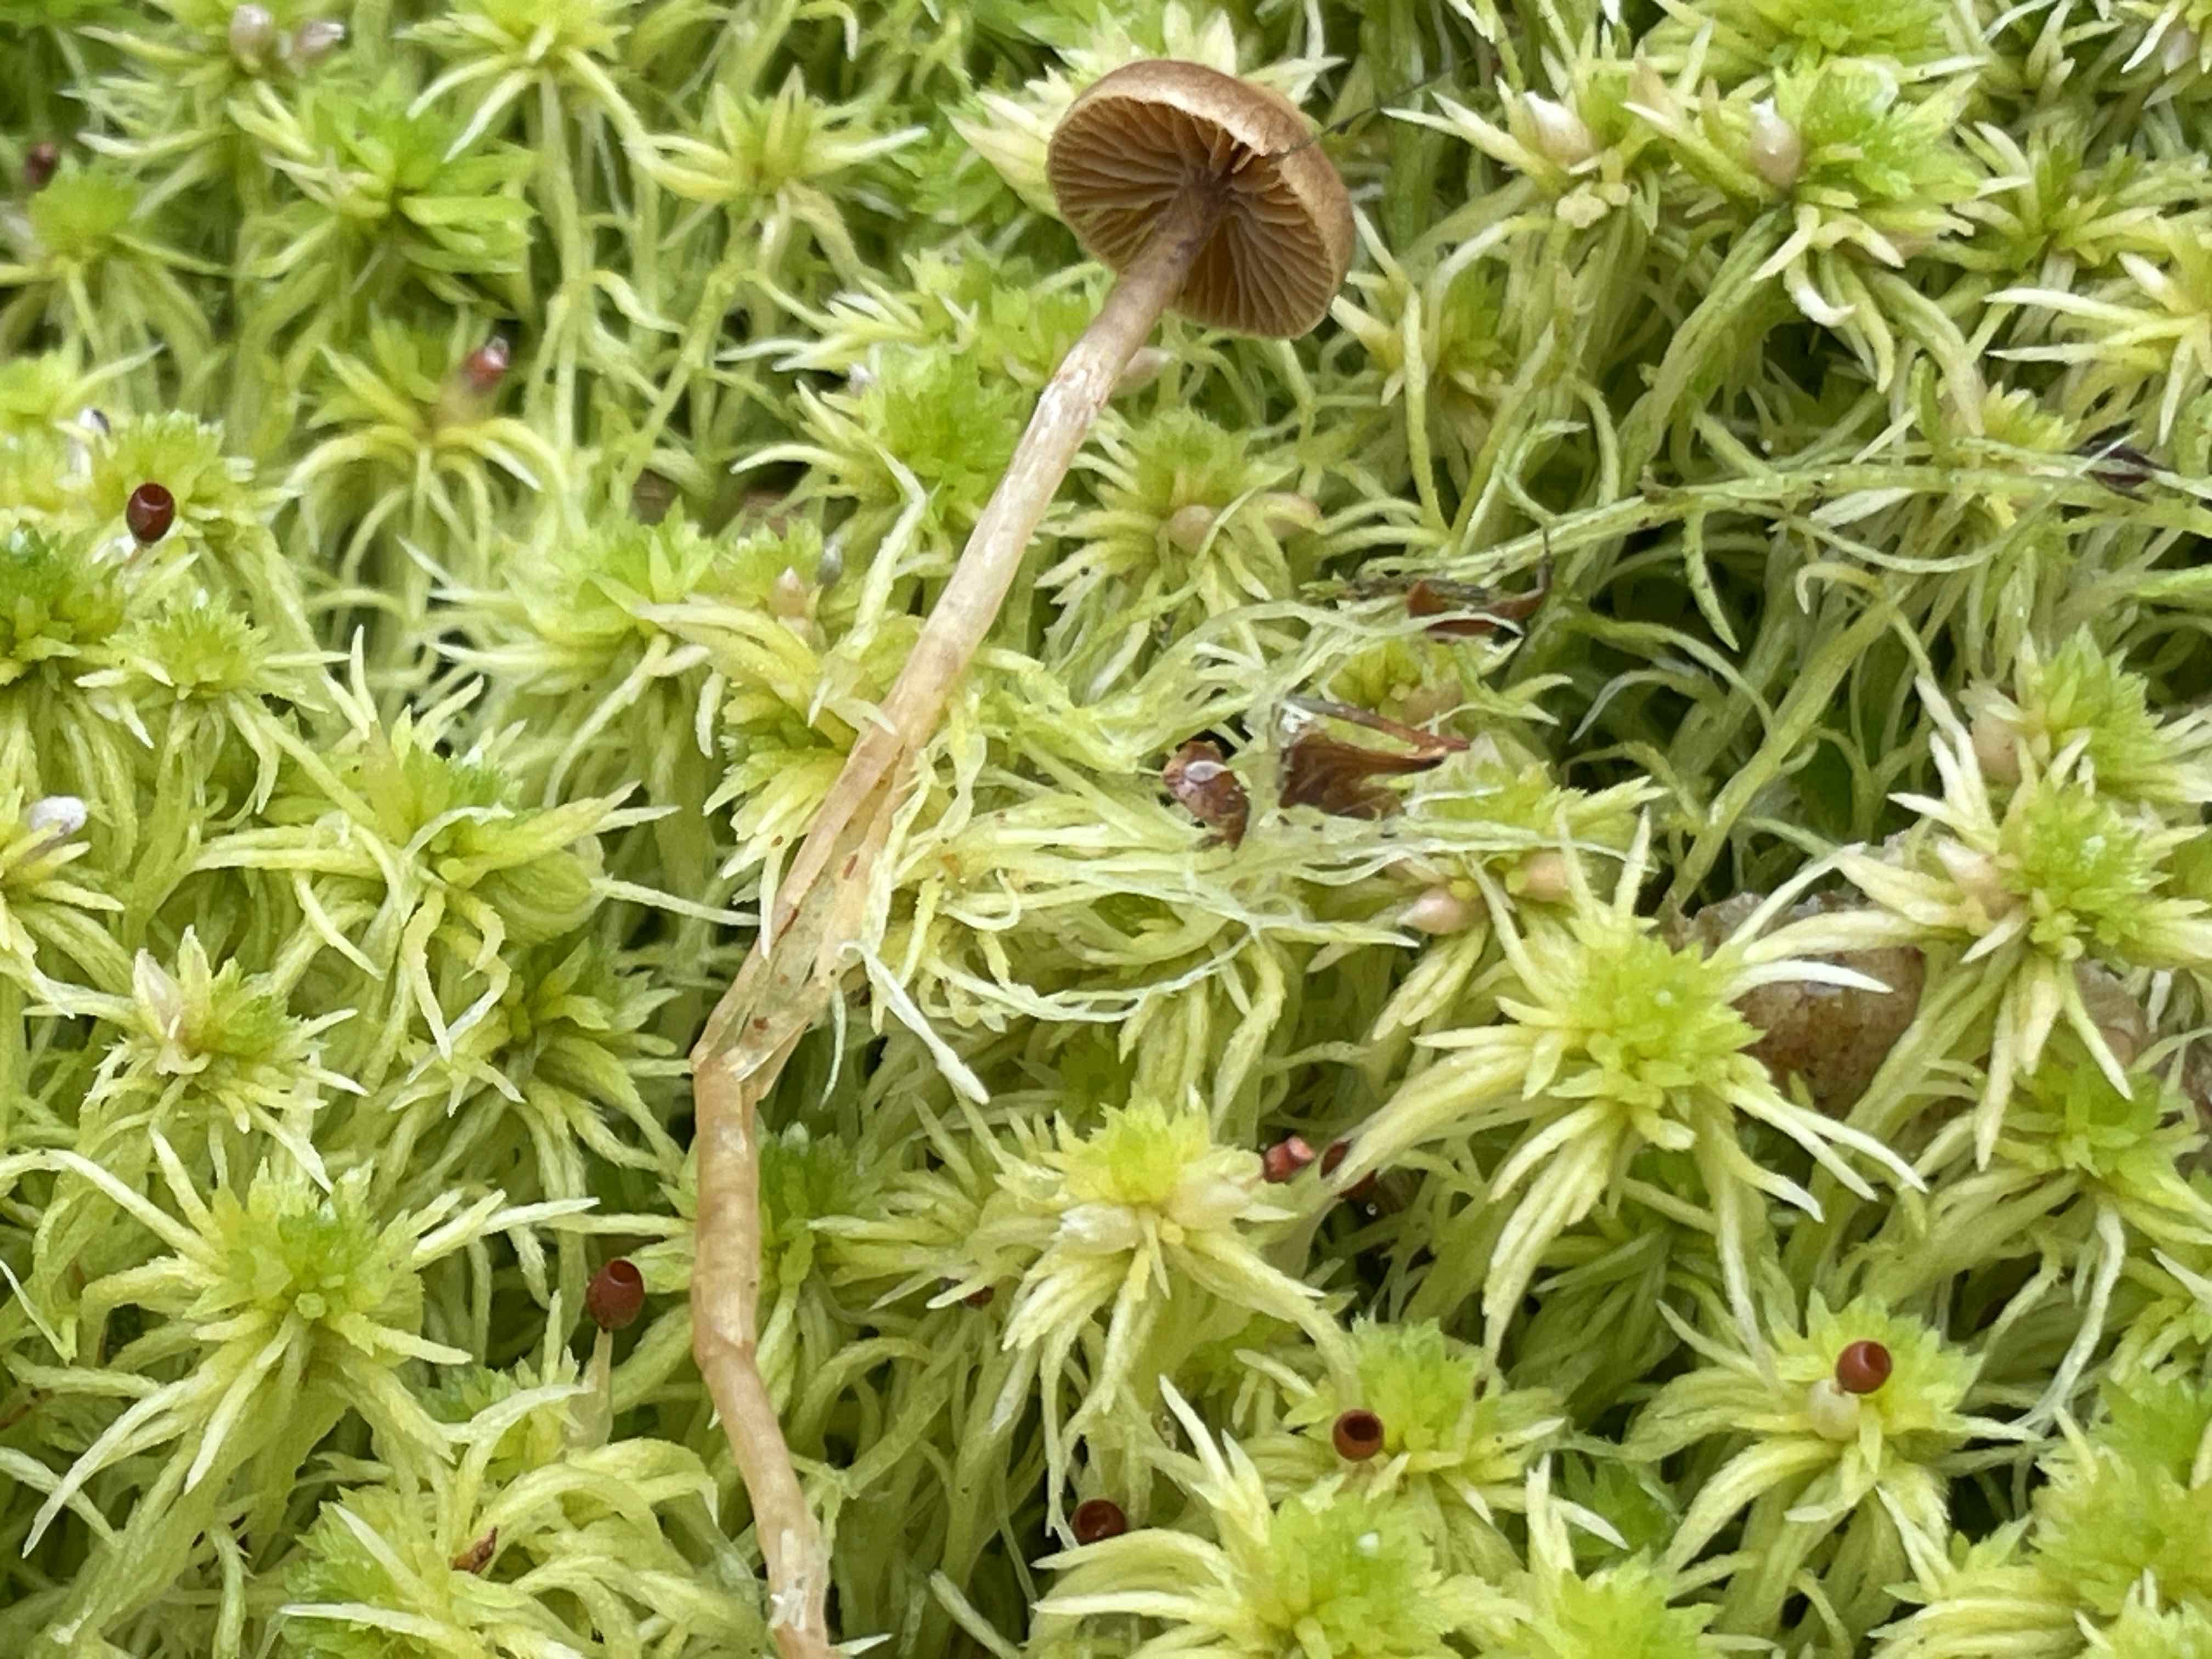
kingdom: Fungi
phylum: Basidiomycota
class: Agaricomycetes
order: Agaricales
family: Hymenogastraceae
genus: Galerina
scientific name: Galerina paludosa
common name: mose-hjelmhat
